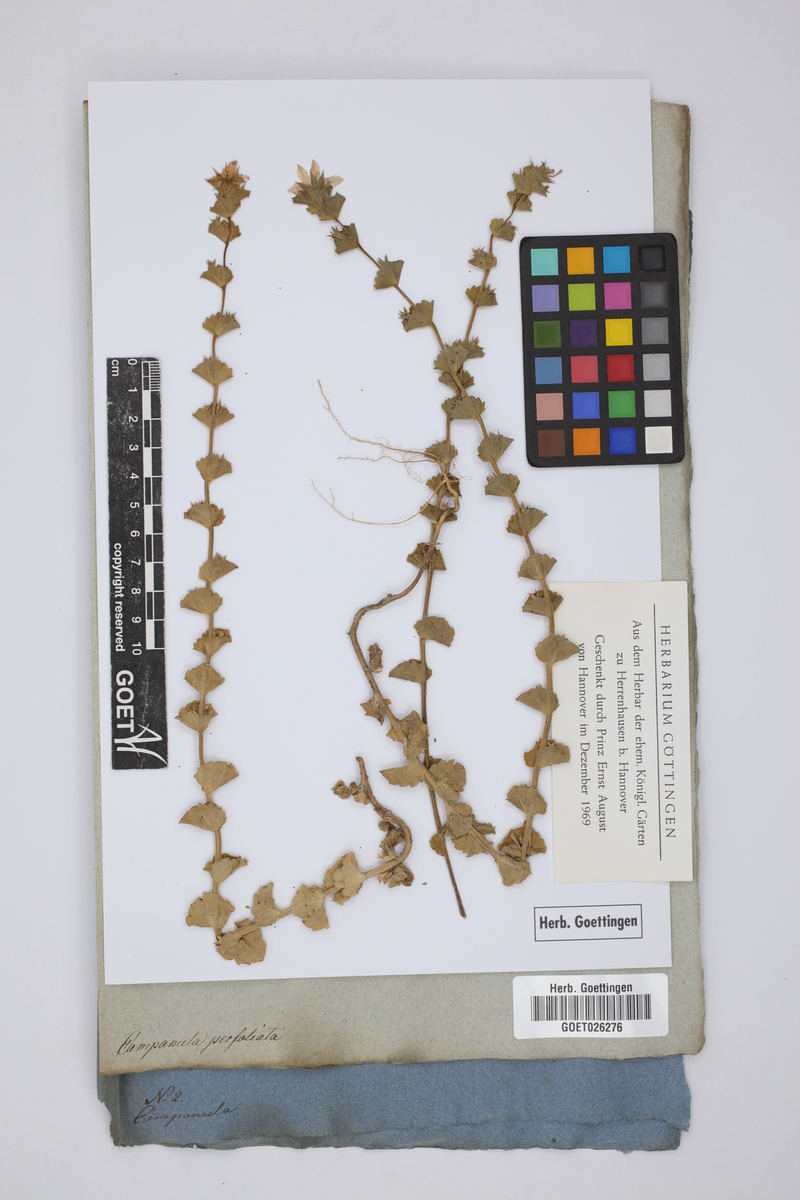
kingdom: Plantae
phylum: Tracheophyta
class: Magnoliopsida
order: Asterales
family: Campanulaceae
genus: Triodanis
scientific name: Triodanis perfoliata
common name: Clasping venus' looking-glass
